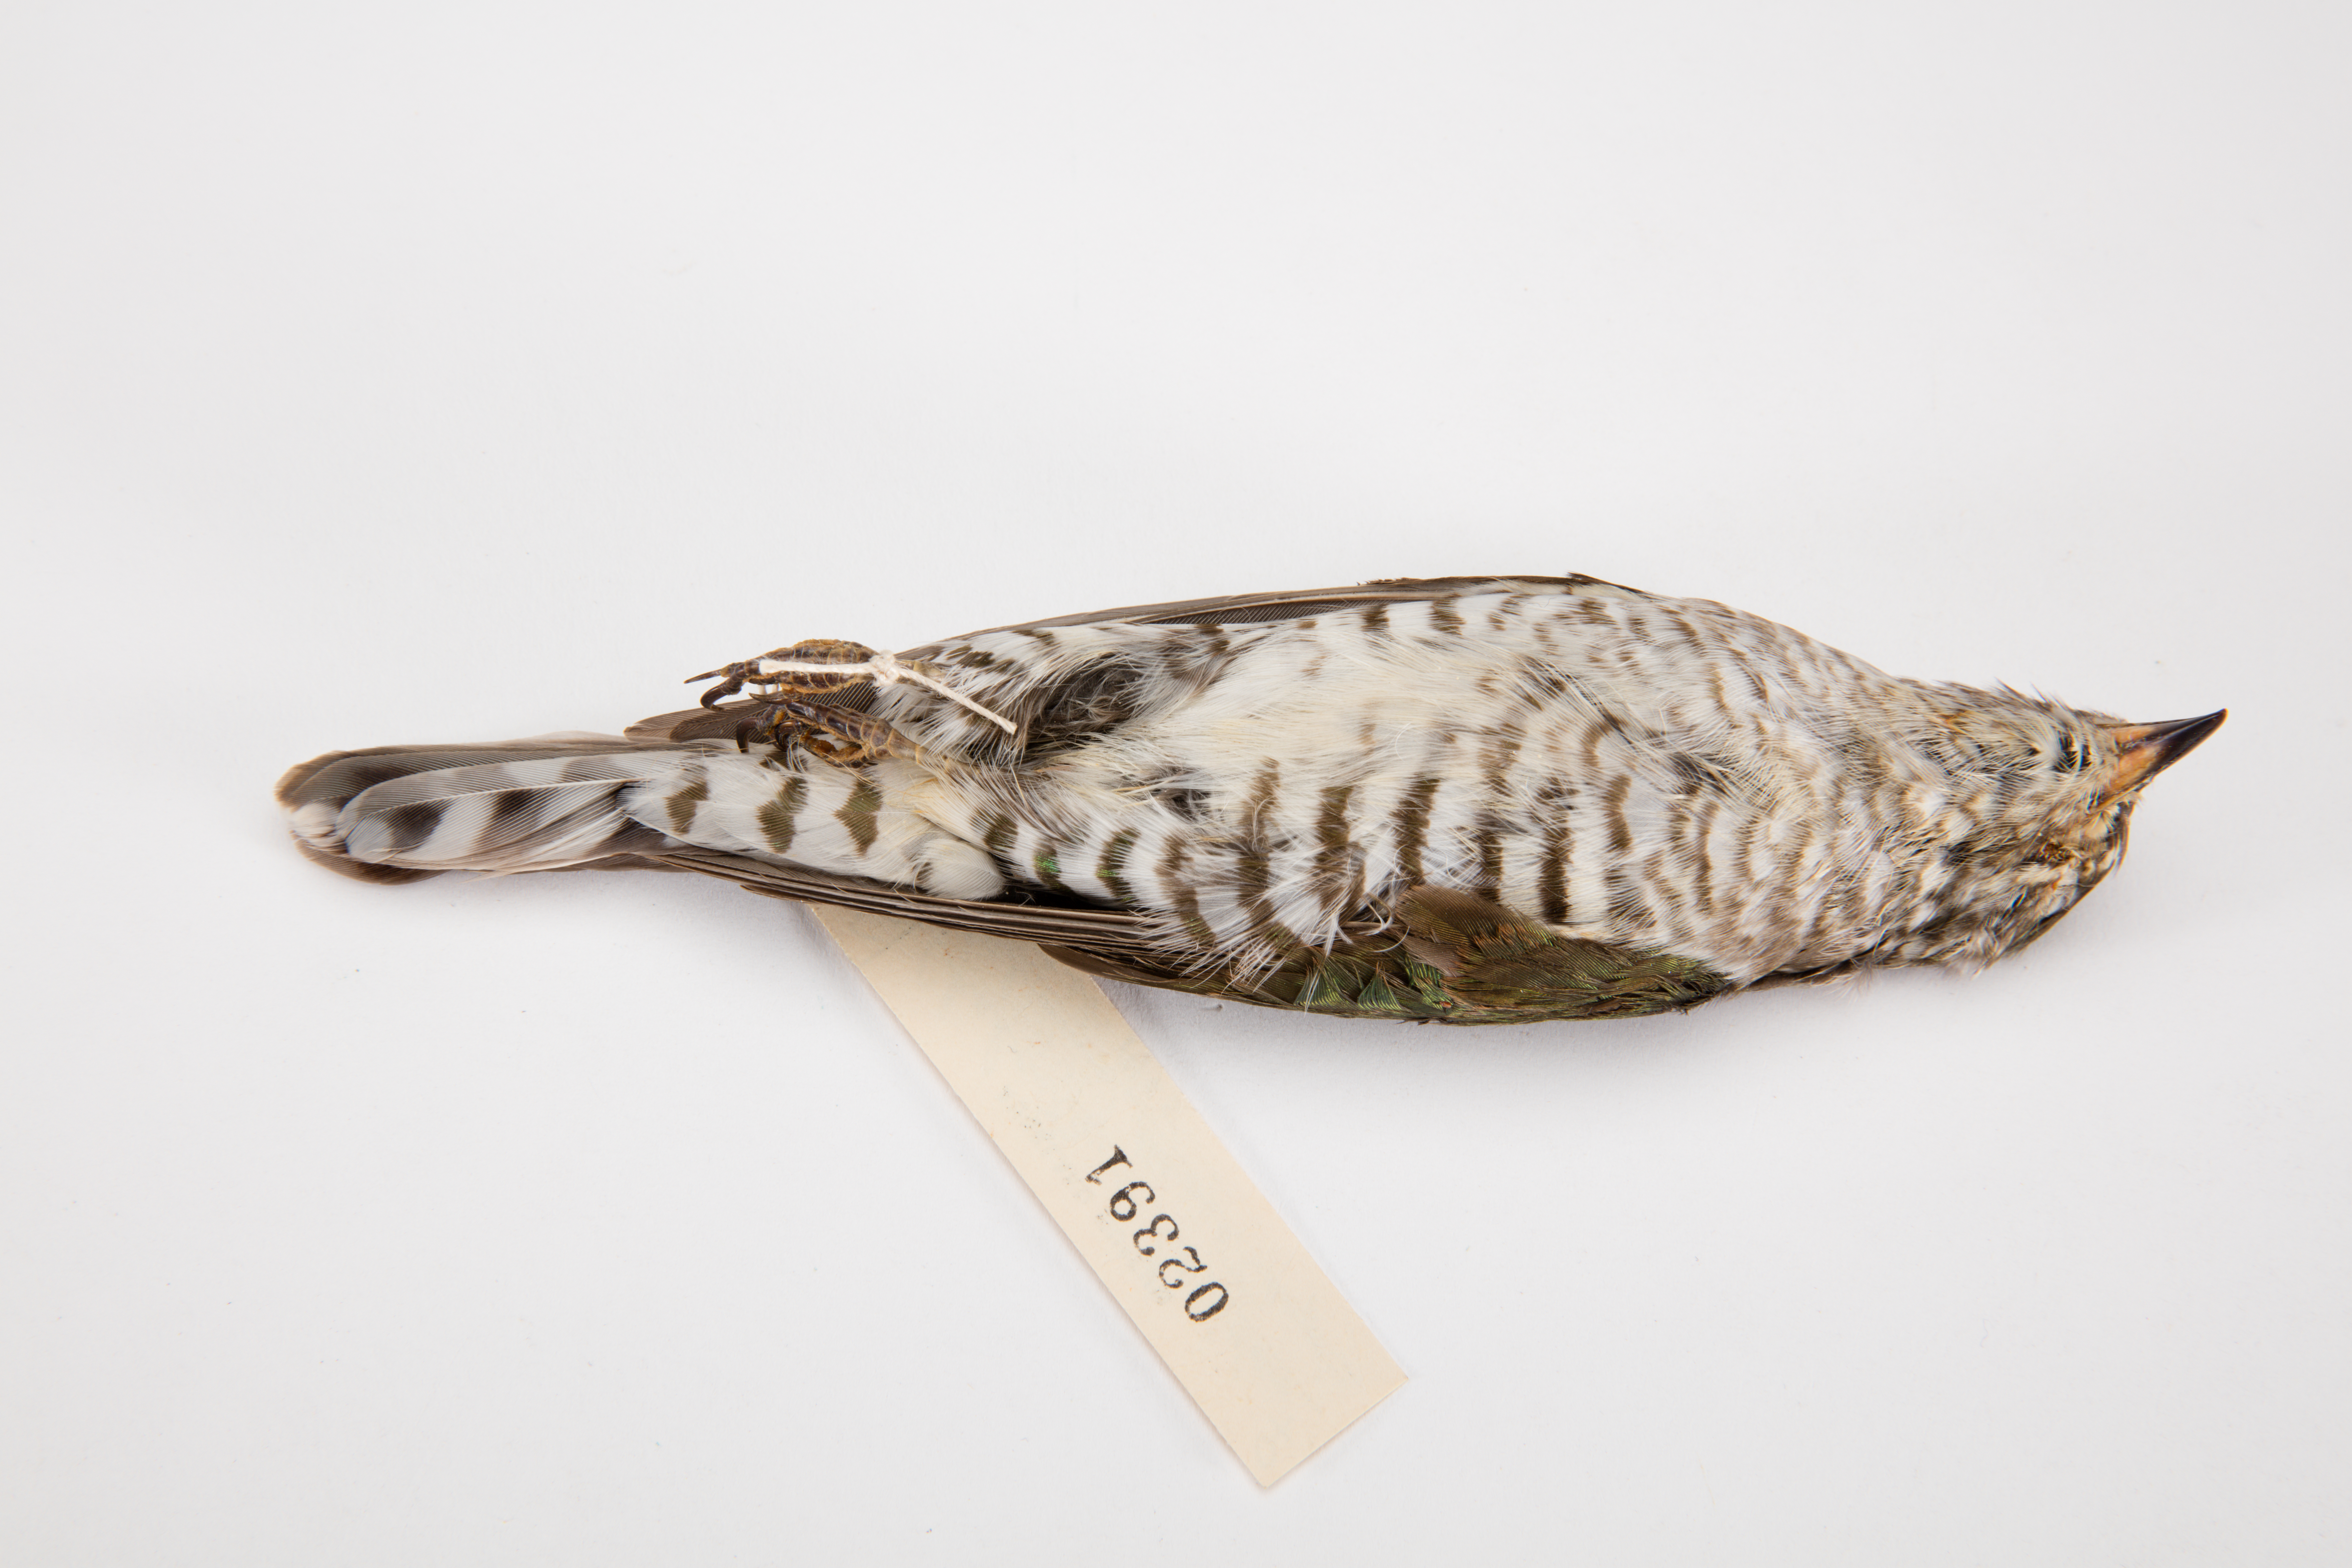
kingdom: Animalia
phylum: Chordata
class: Aves
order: Cuculiformes
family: Cuculidae
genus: Chrysococcyx
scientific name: Chrysococcyx lucidus
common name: Shining bronze cuckoo
